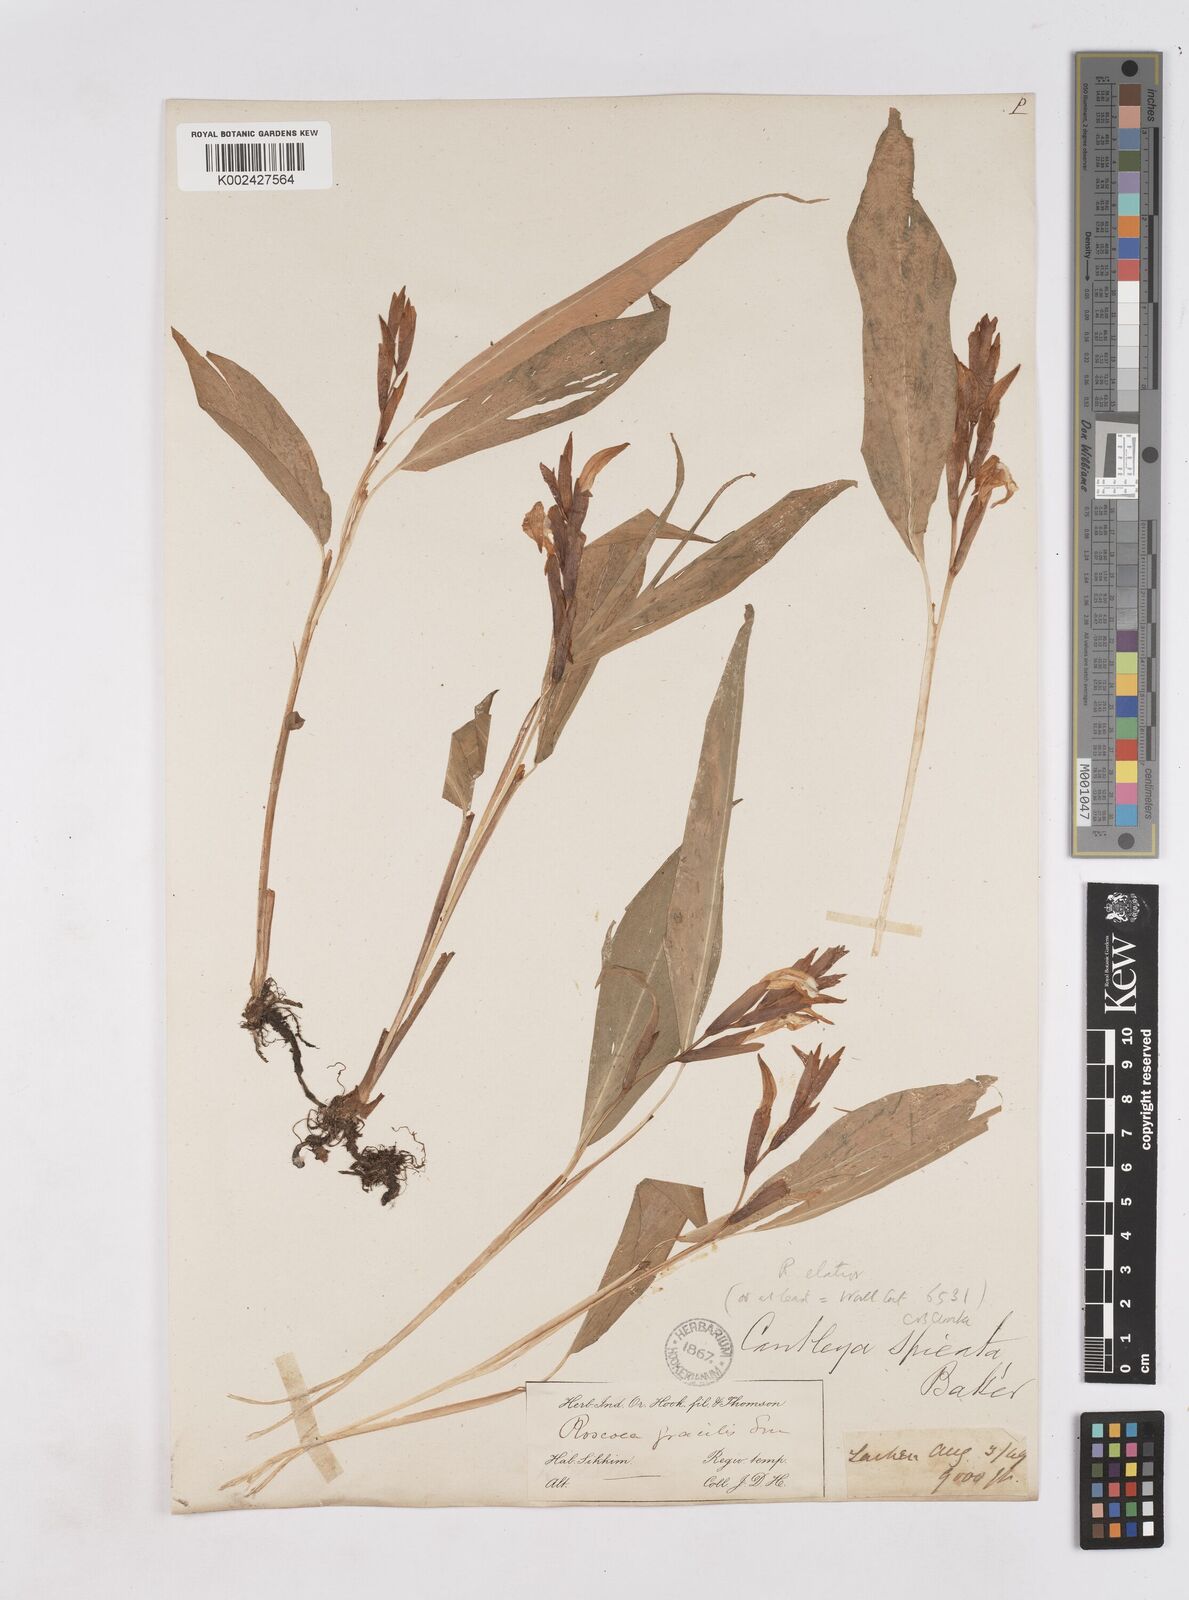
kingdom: Plantae
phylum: Tracheophyta
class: Liliopsida
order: Zingiberales
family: Zingiberaceae
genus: Cautleya
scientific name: Cautleya spicata
